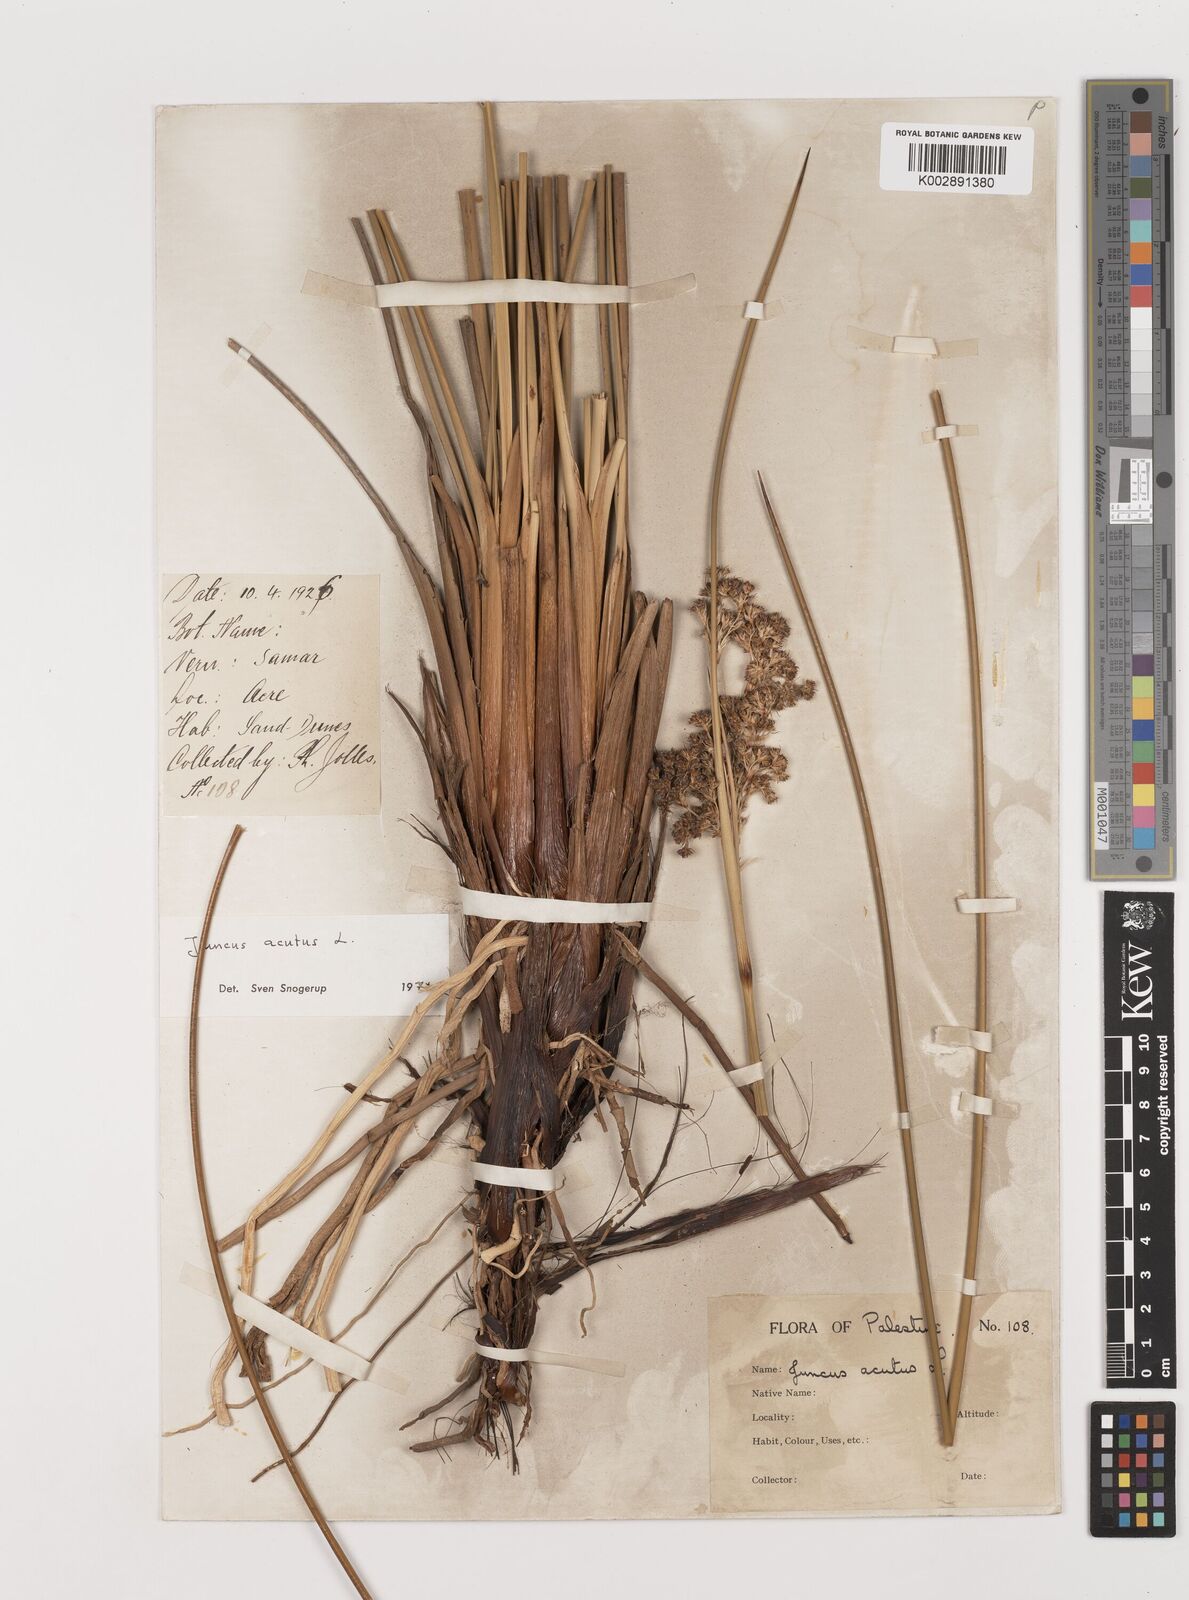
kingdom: Plantae
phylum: Tracheophyta
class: Liliopsida
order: Poales
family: Juncaceae
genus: Juncus
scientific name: Juncus acutus
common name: Sharp rush
